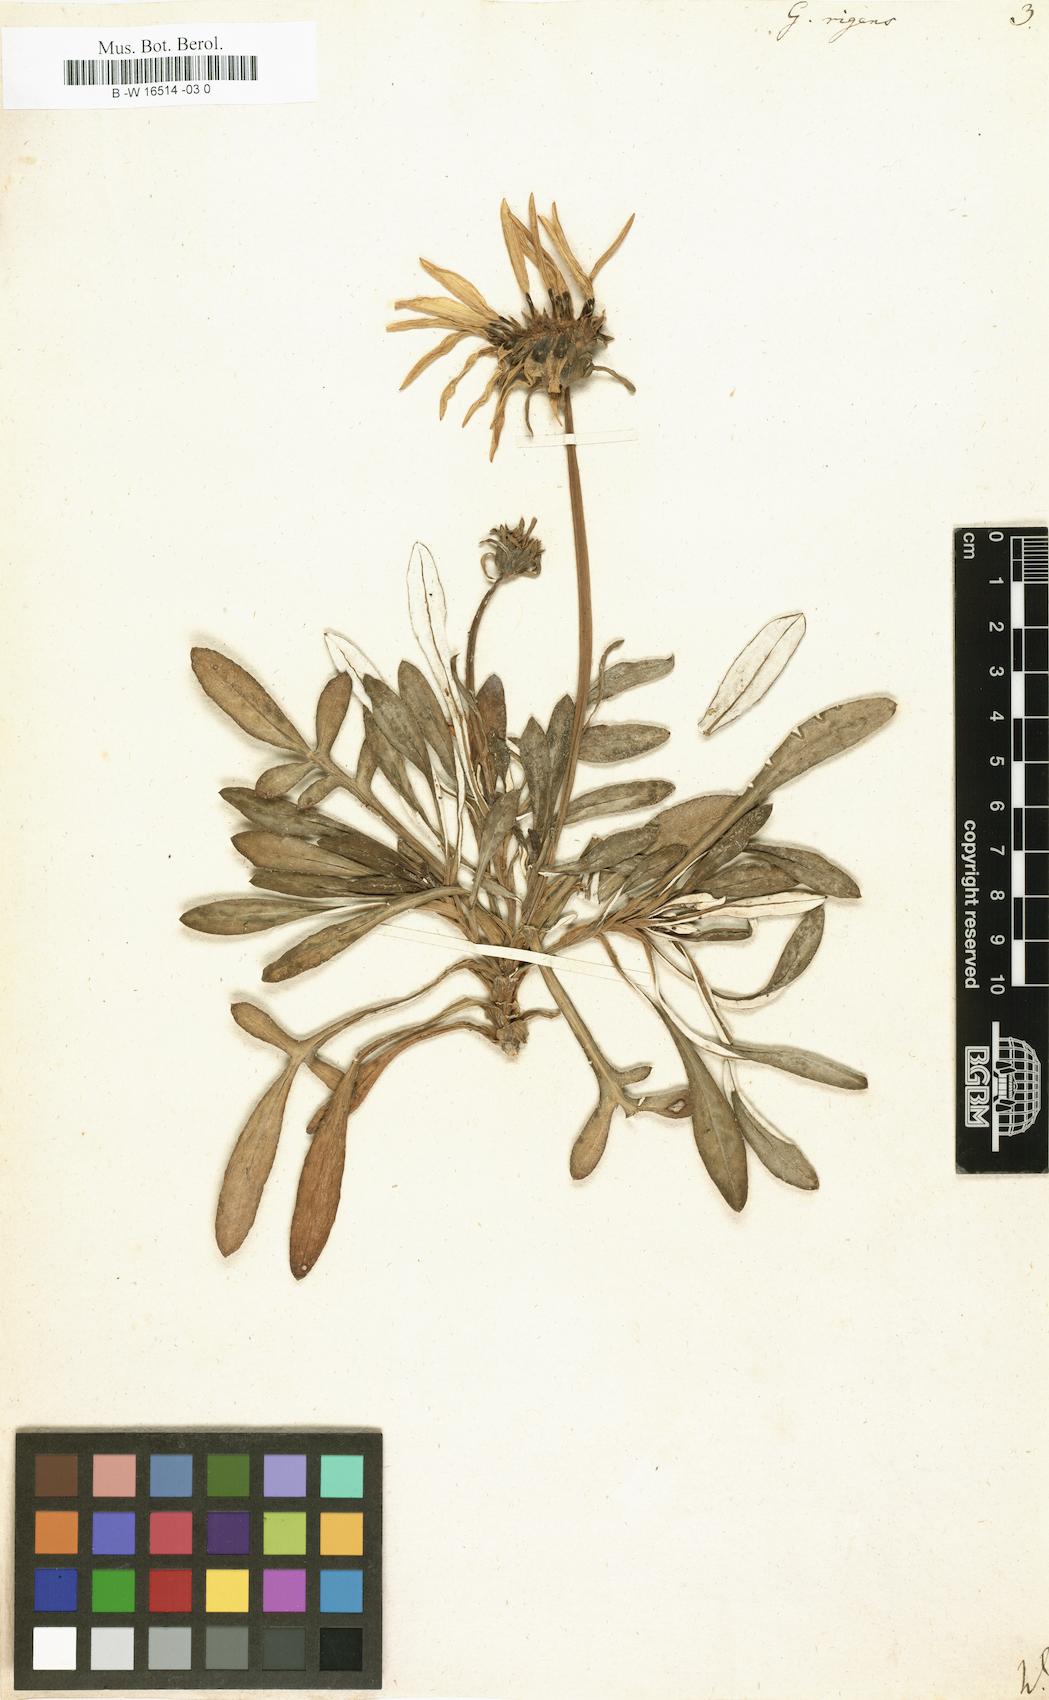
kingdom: Plantae
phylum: Tracheophyta
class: Magnoliopsida
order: Asterales
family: Asteraceae
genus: Gazania
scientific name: Gazania
